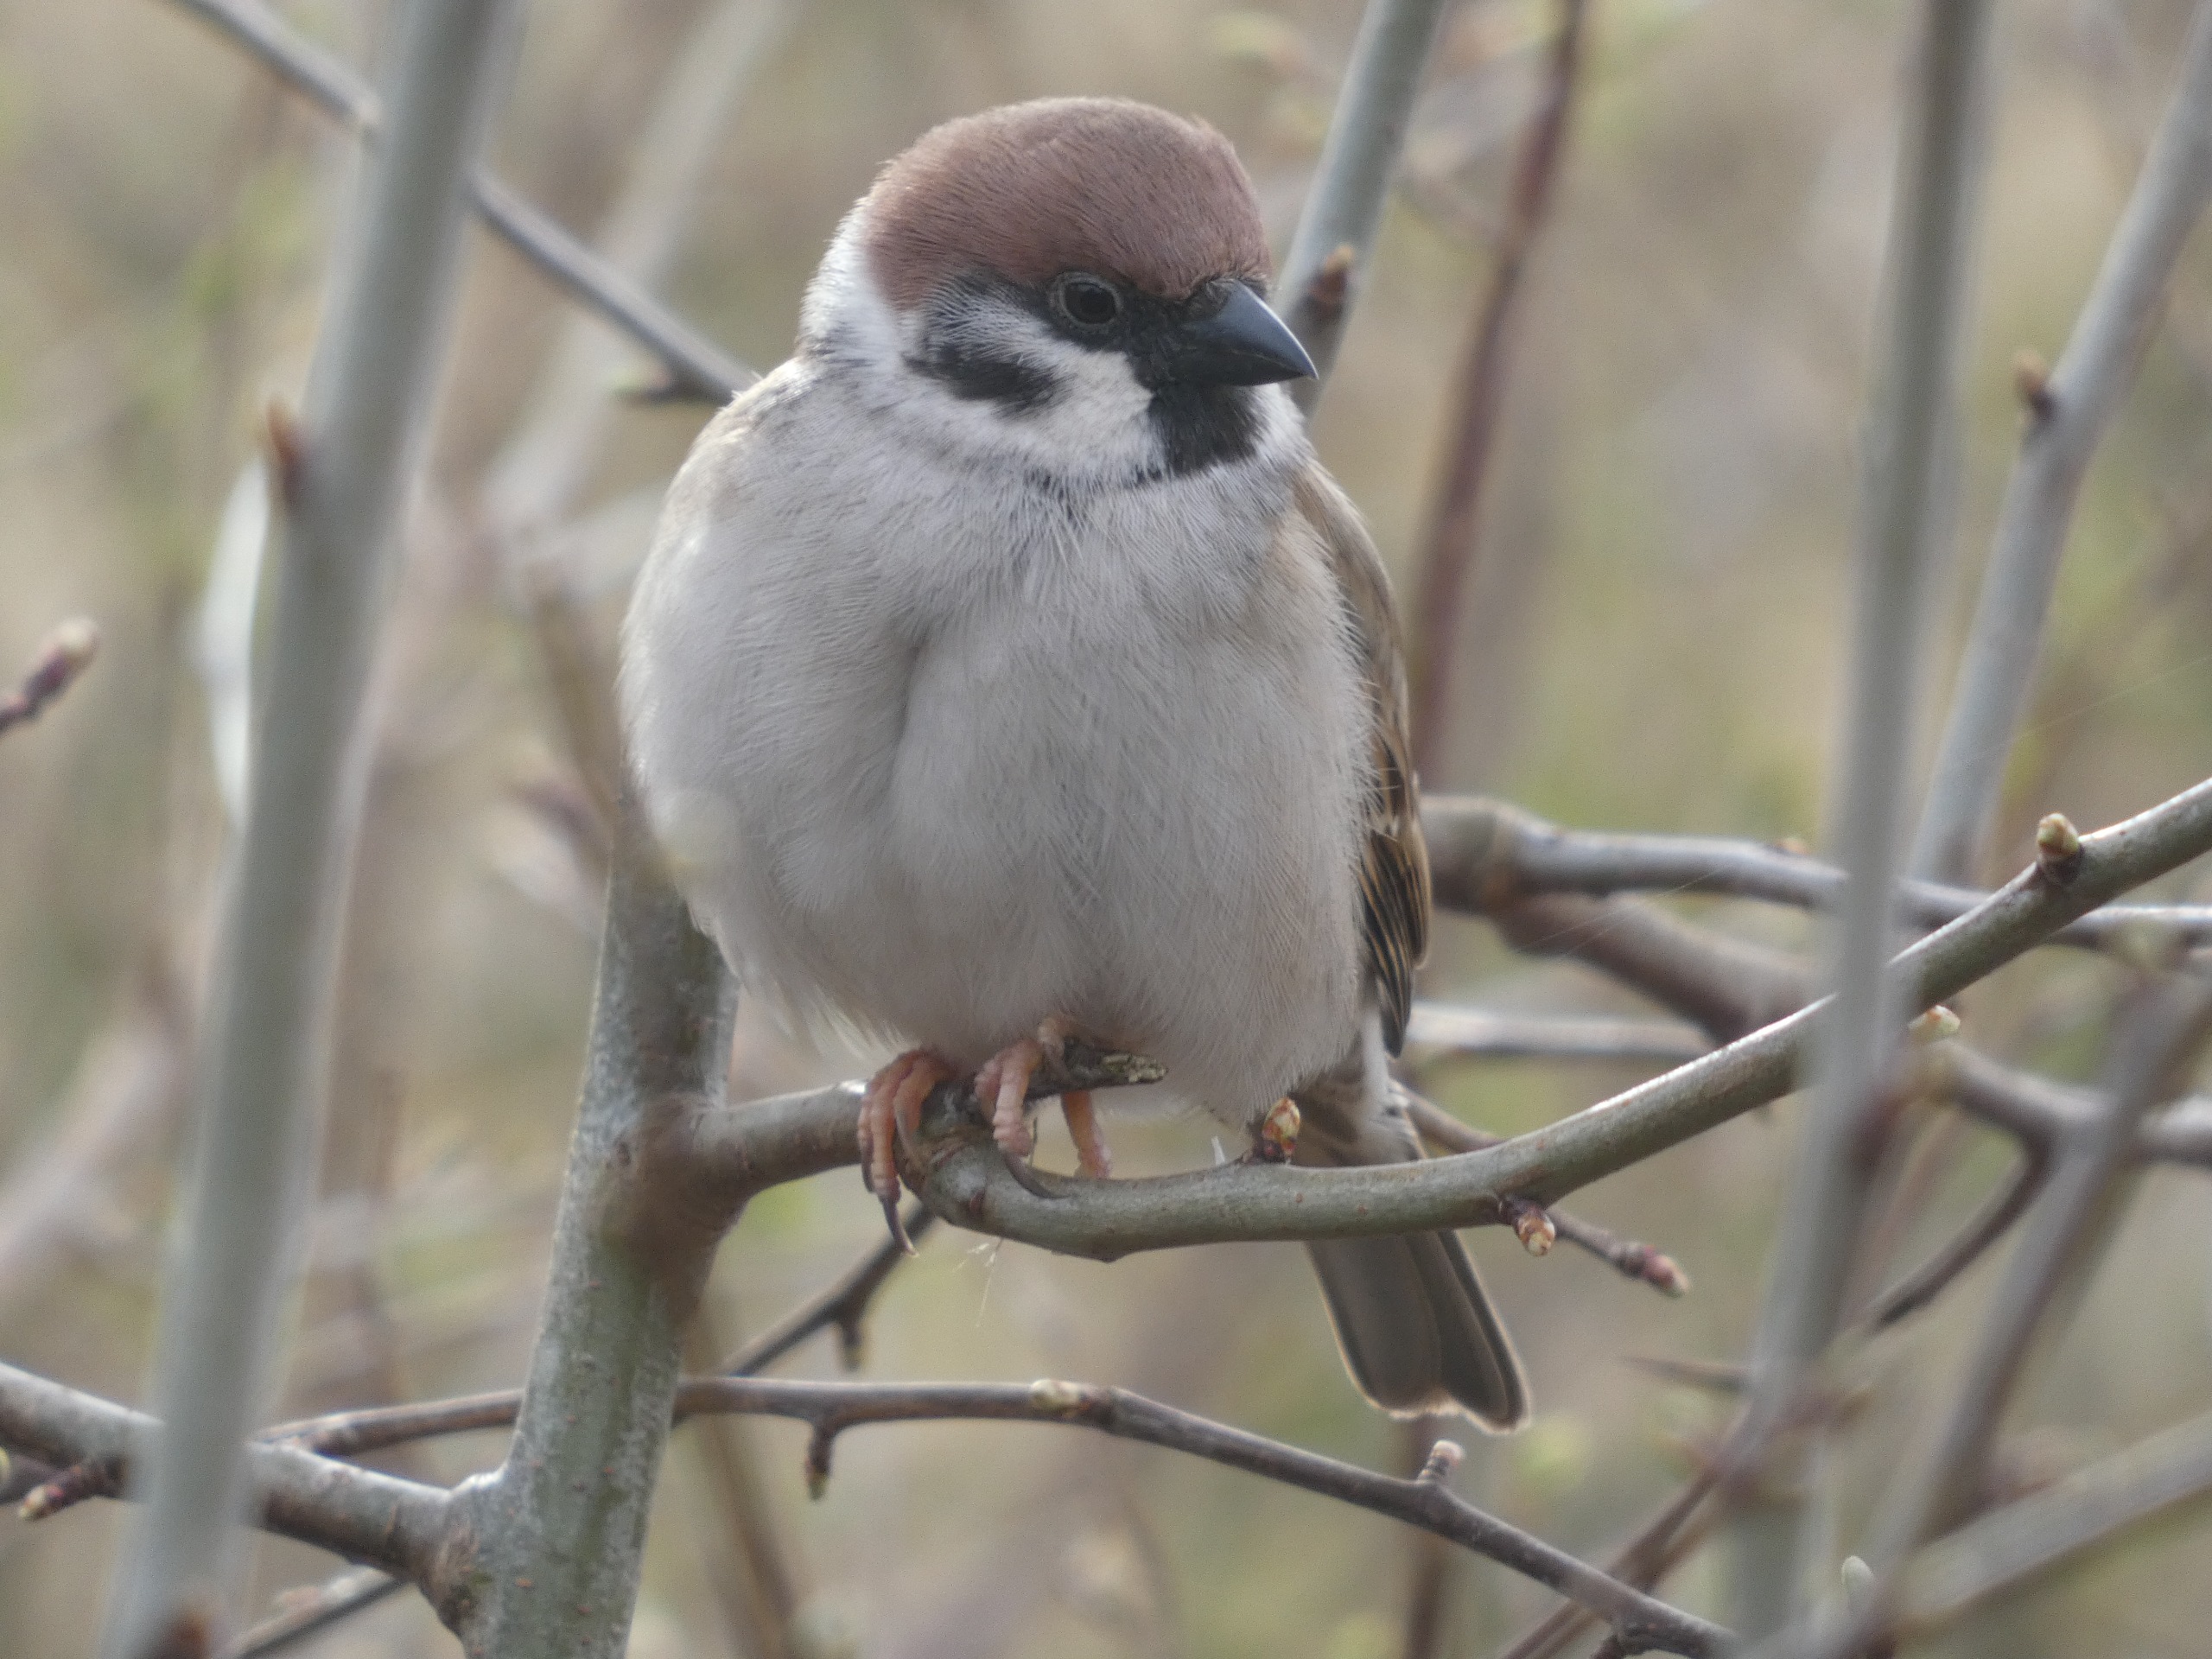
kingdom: Animalia
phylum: Chordata
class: Aves
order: Passeriformes
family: Passeridae
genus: Passer
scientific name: Passer montanus
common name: Skovspurv
